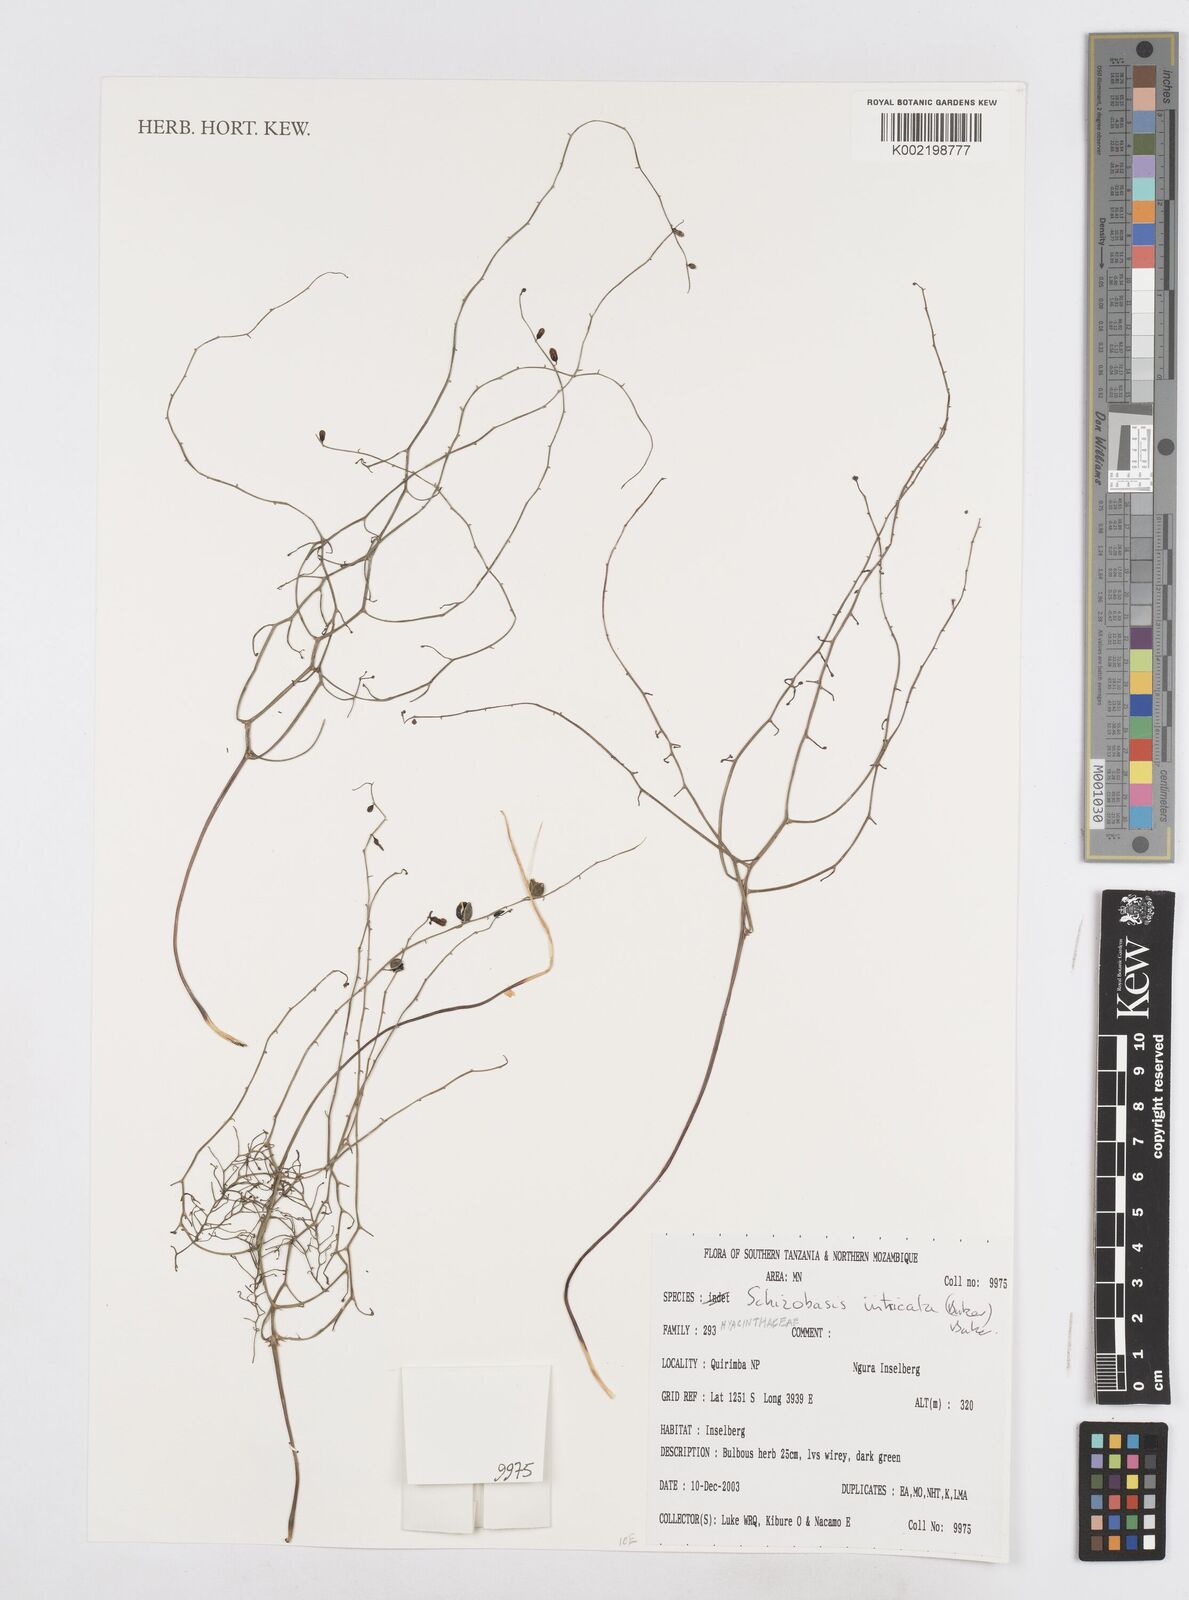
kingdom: Plantae
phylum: Tracheophyta
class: Liliopsida
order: Asparagales
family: Asparagaceae
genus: Drimia
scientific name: Drimia intricata
